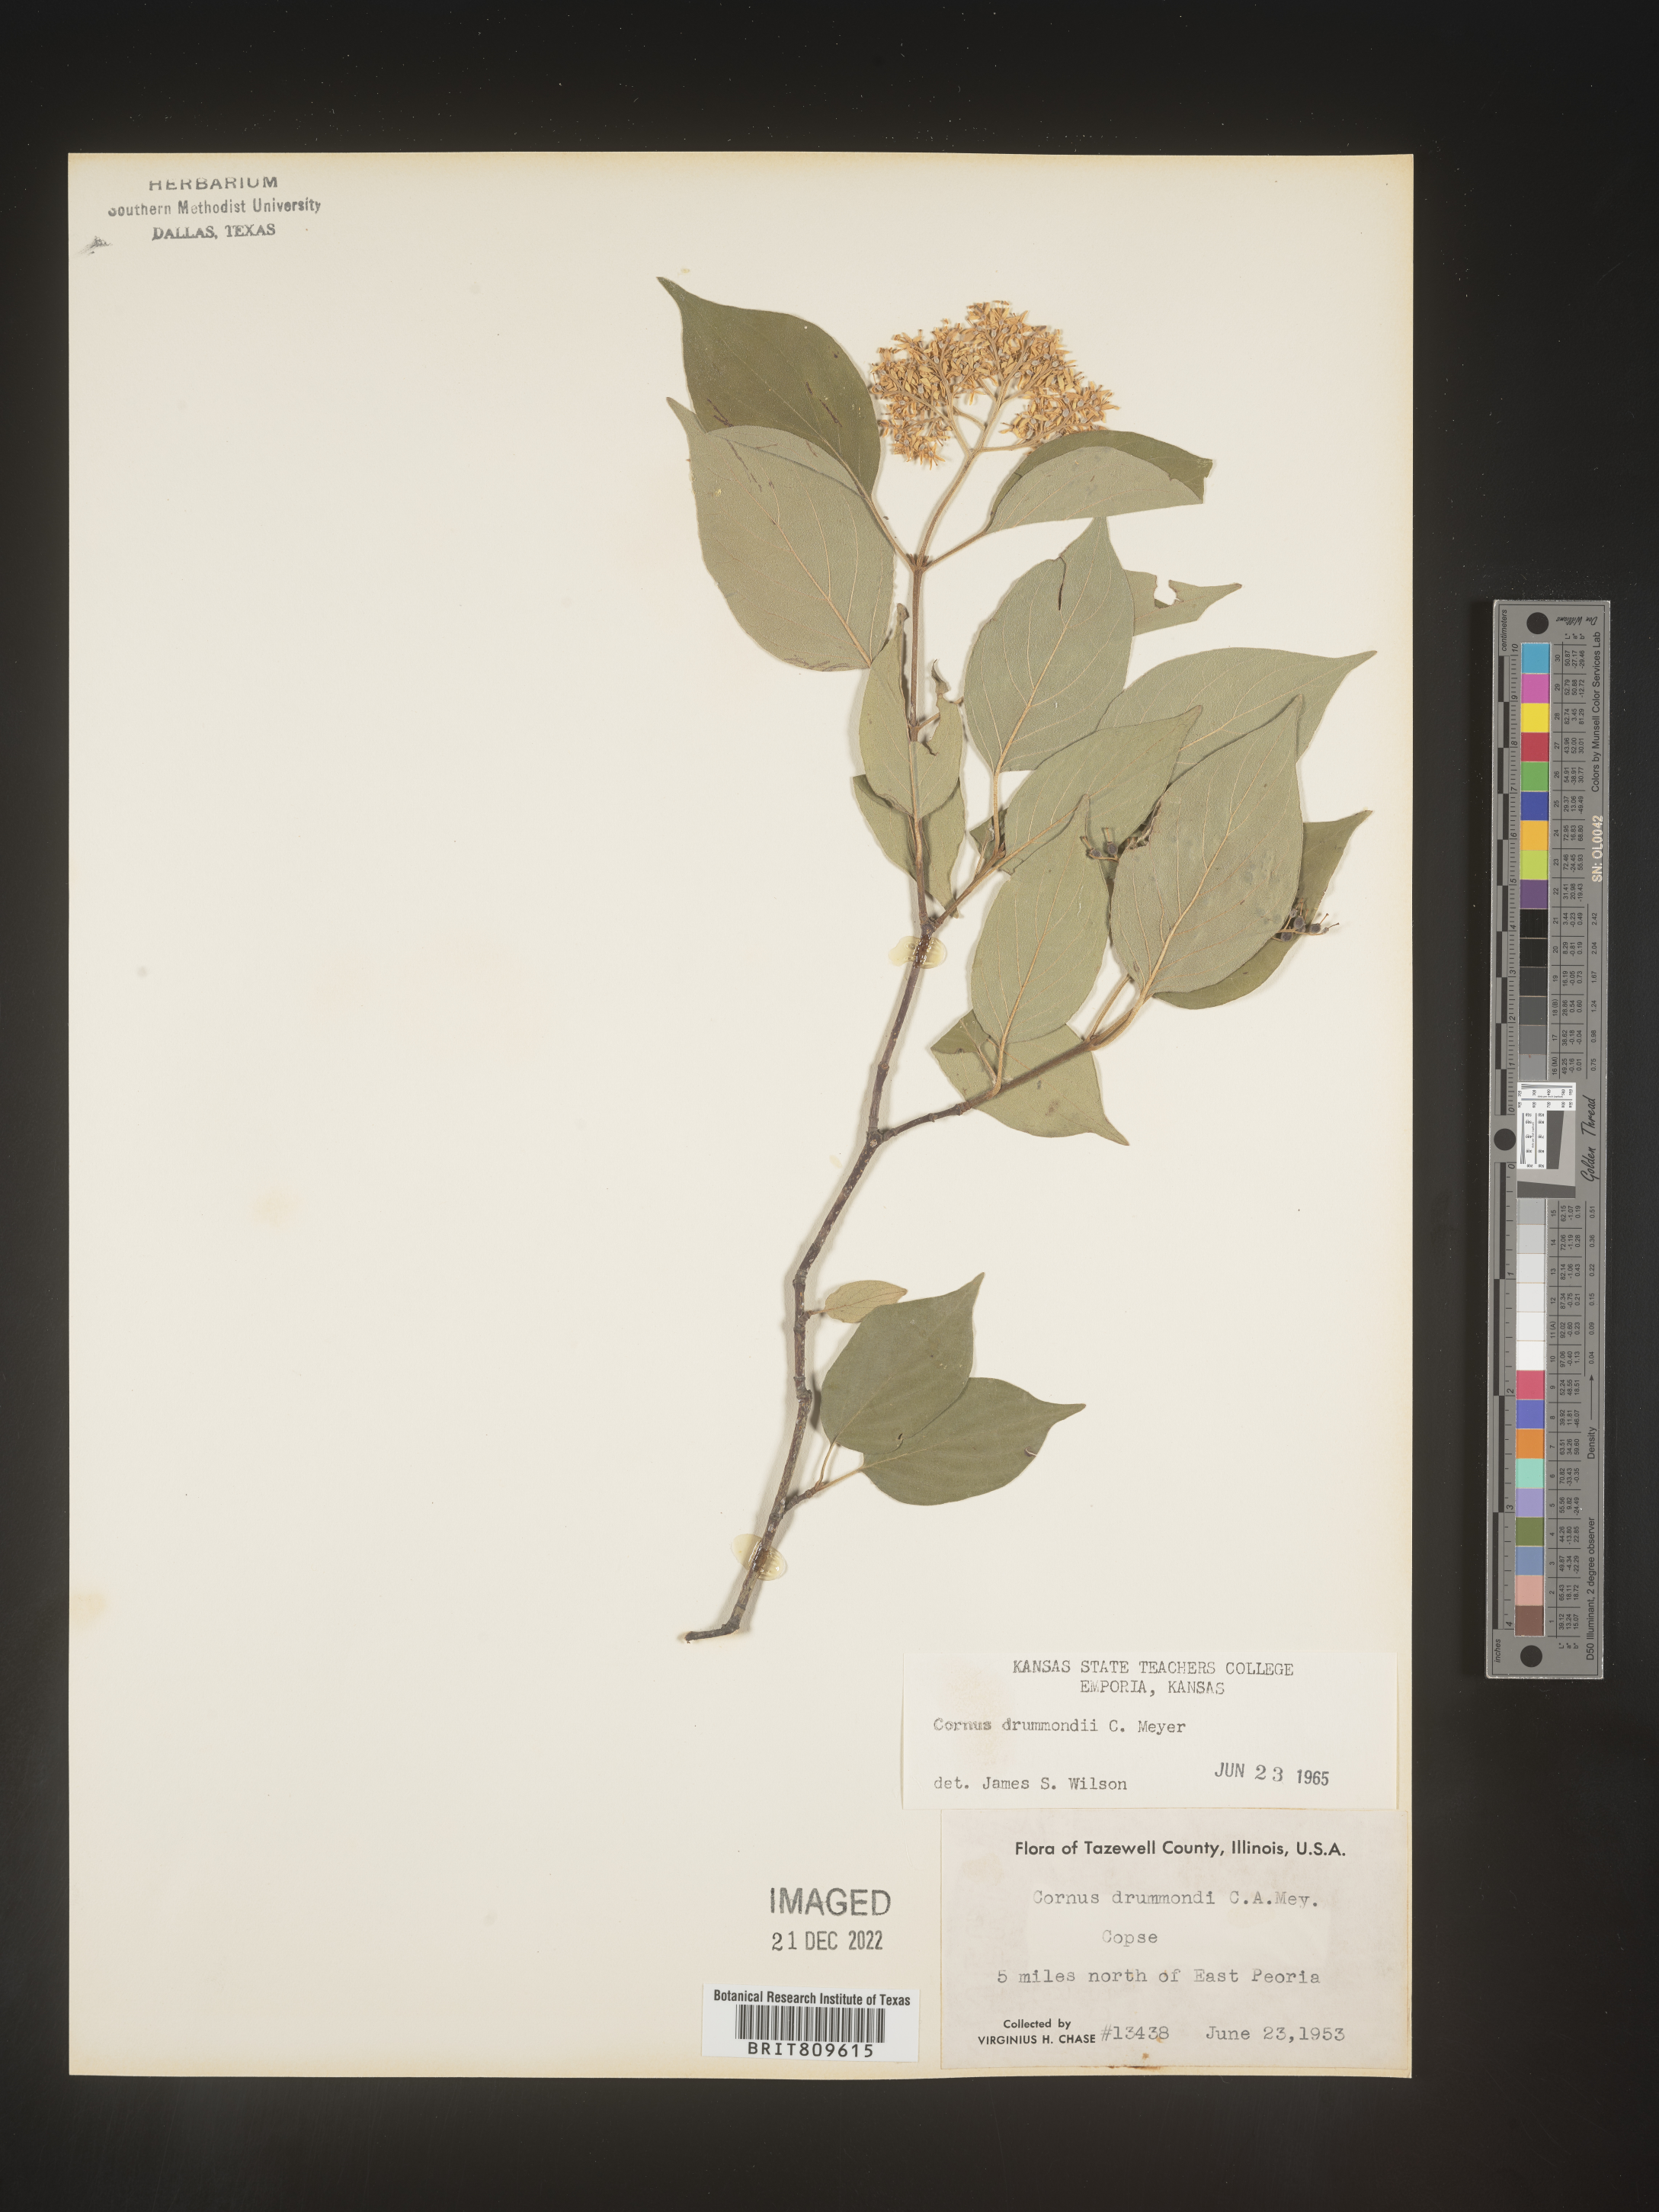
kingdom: Plantae
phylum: Tracheophyta
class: Magnoliopsida
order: Cornales
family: Cornaceae
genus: Cornus
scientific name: Cornus drummondii
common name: Rough-leaf dogwood
